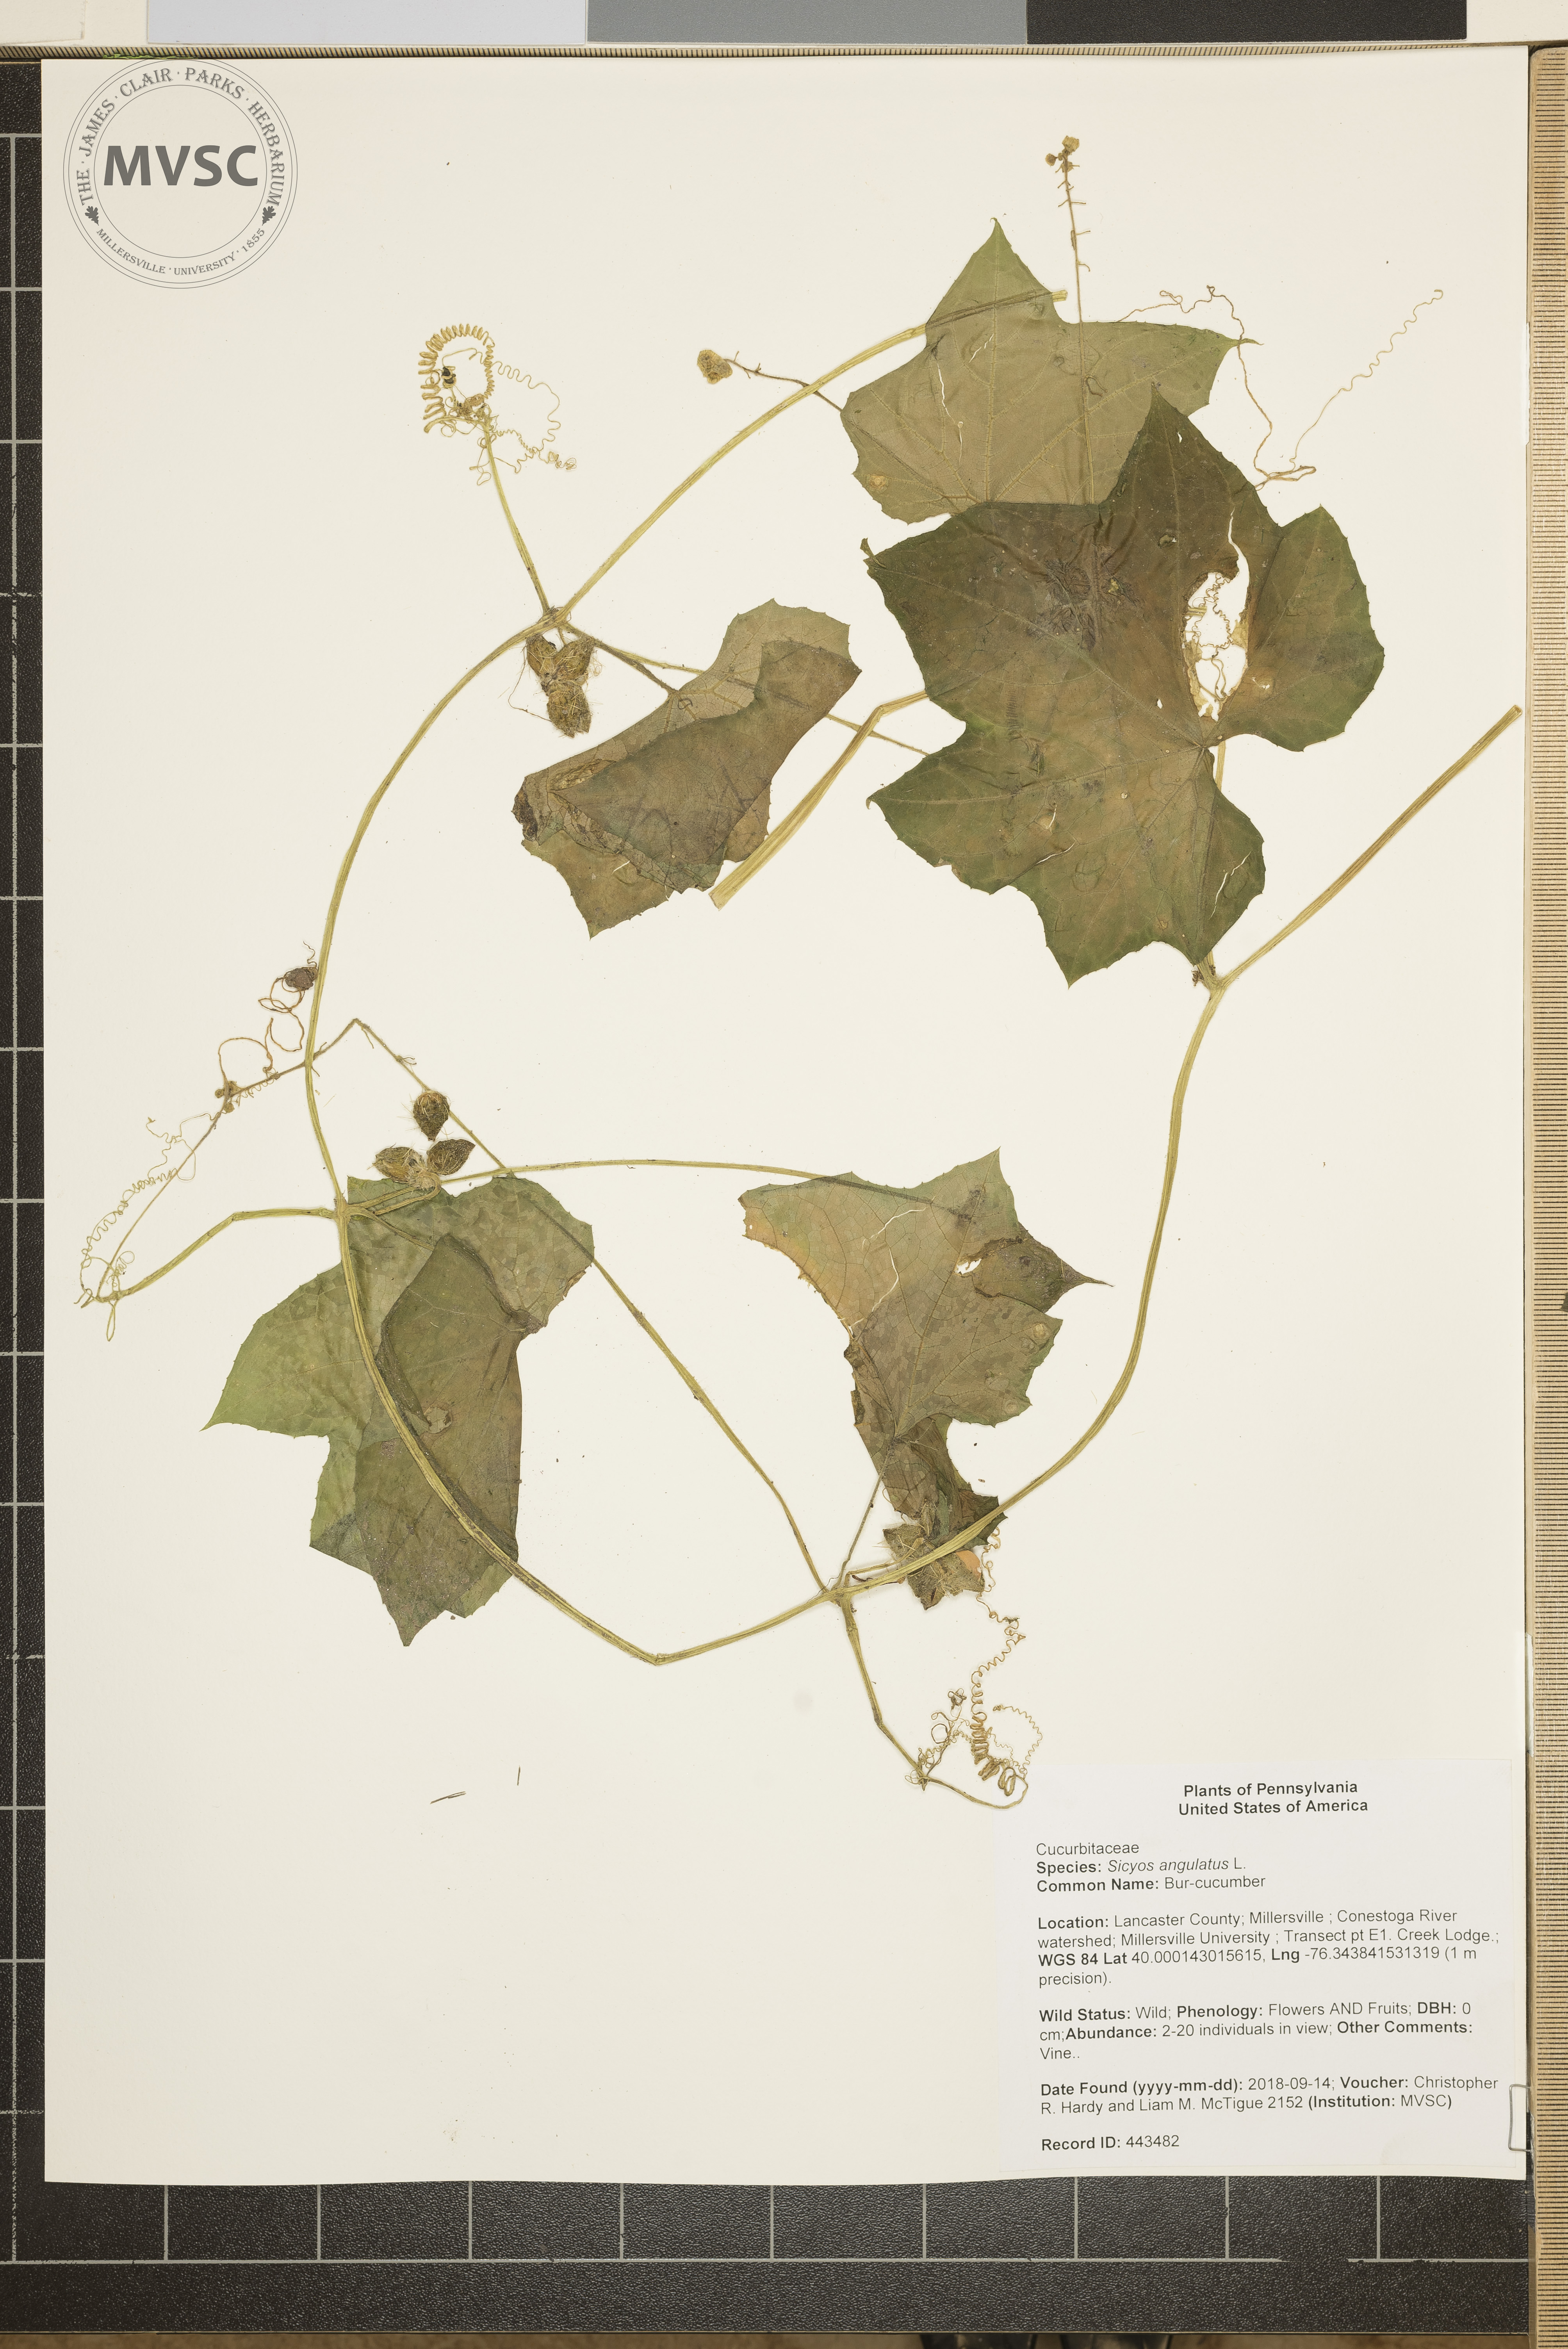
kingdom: Plantae
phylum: Tracheophyta
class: Magnoliopsida
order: Cucurbitales
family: Cucurbitaceae
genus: Sicyos
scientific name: Sicyos angulatus
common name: Bur-cucumber
